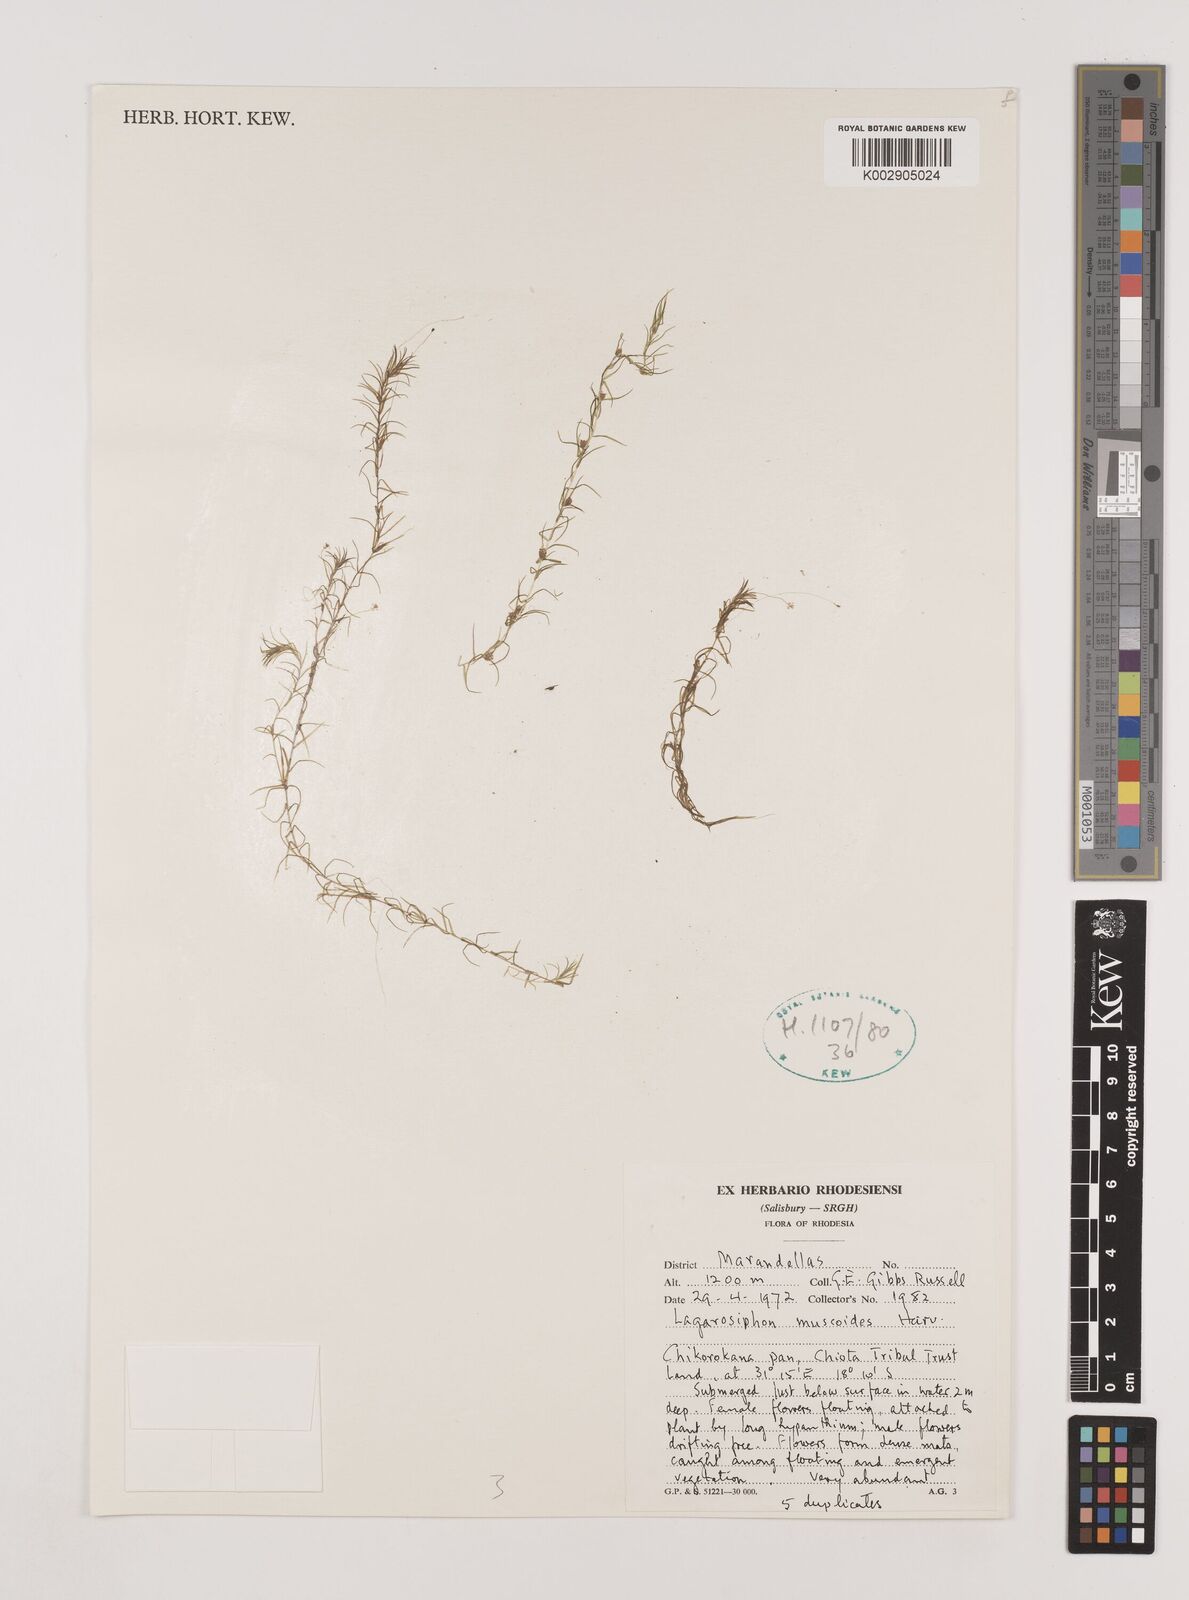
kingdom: Plantae
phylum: Tracheophyta
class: Liliopsida
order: Alismatales
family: Hydrocharitaceae
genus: Lagarosiphon
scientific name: Lagarosiphon muscoides
